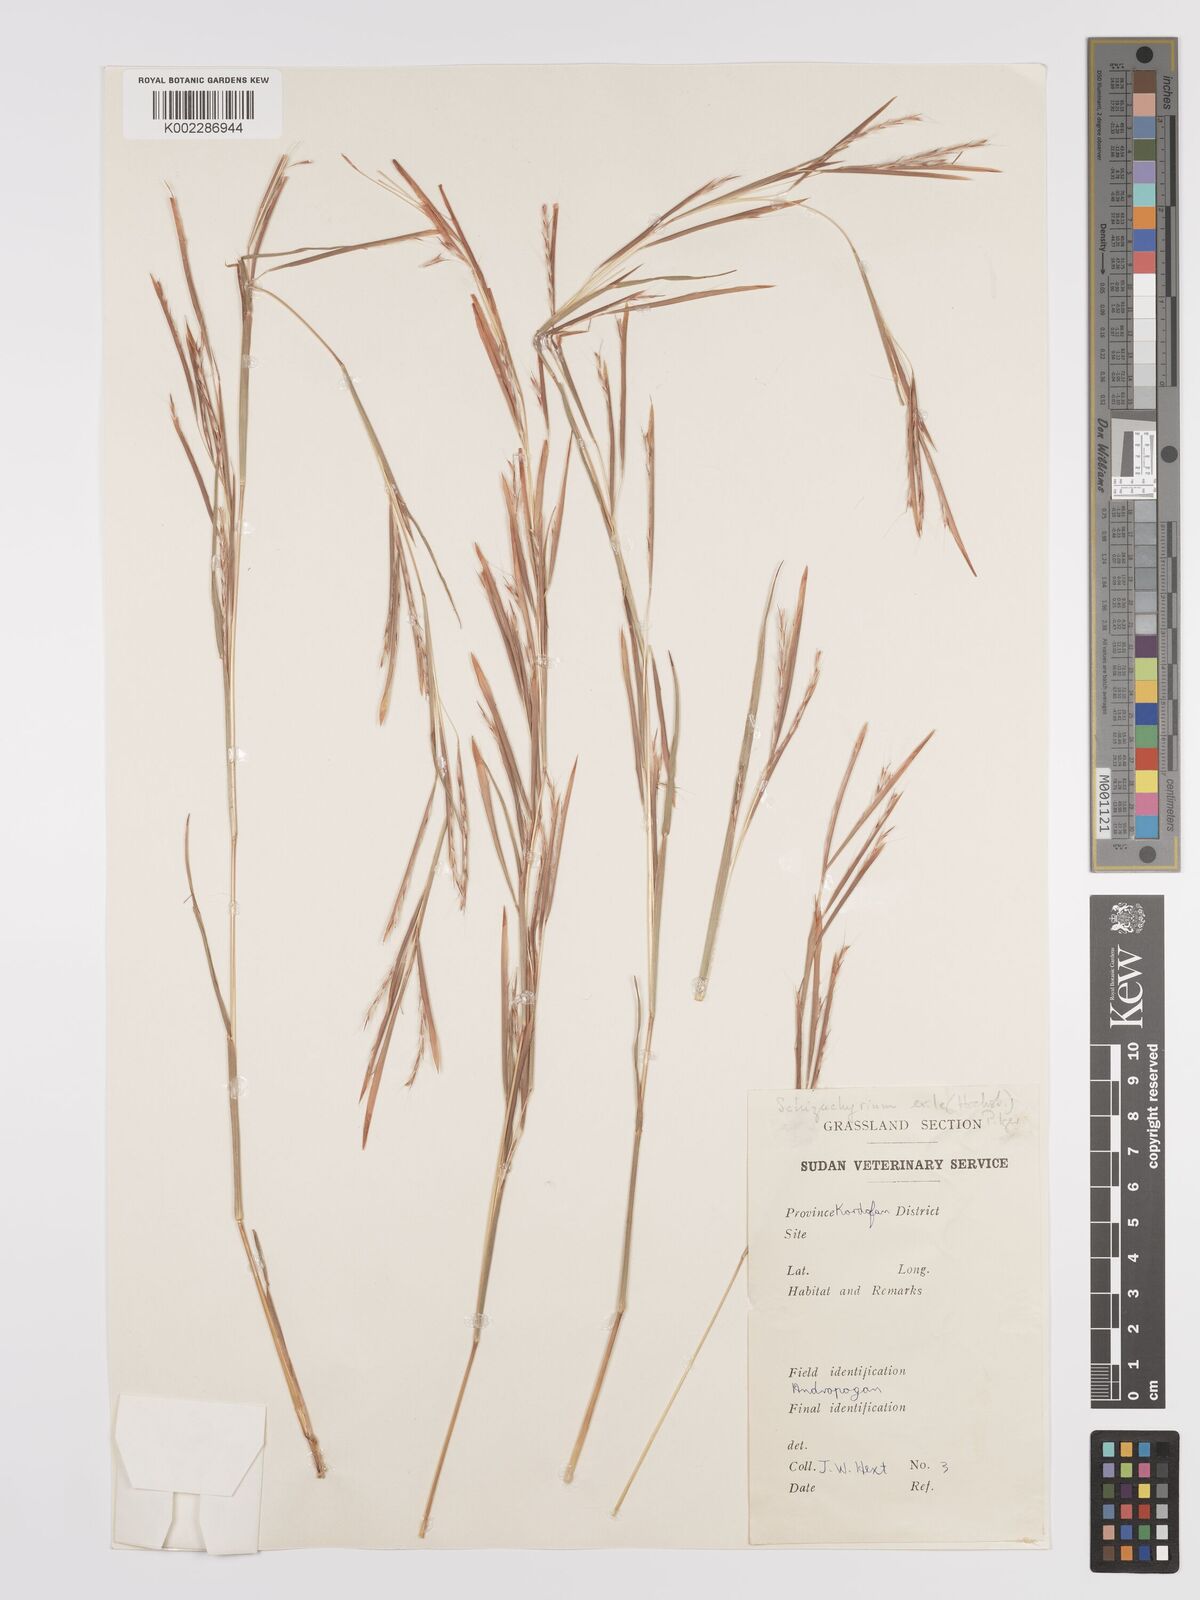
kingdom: Plantae
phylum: Tracheophyta
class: Liliopsida
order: Poales
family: Poaceae
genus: Schizachyrium
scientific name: Schizachyrium exile
